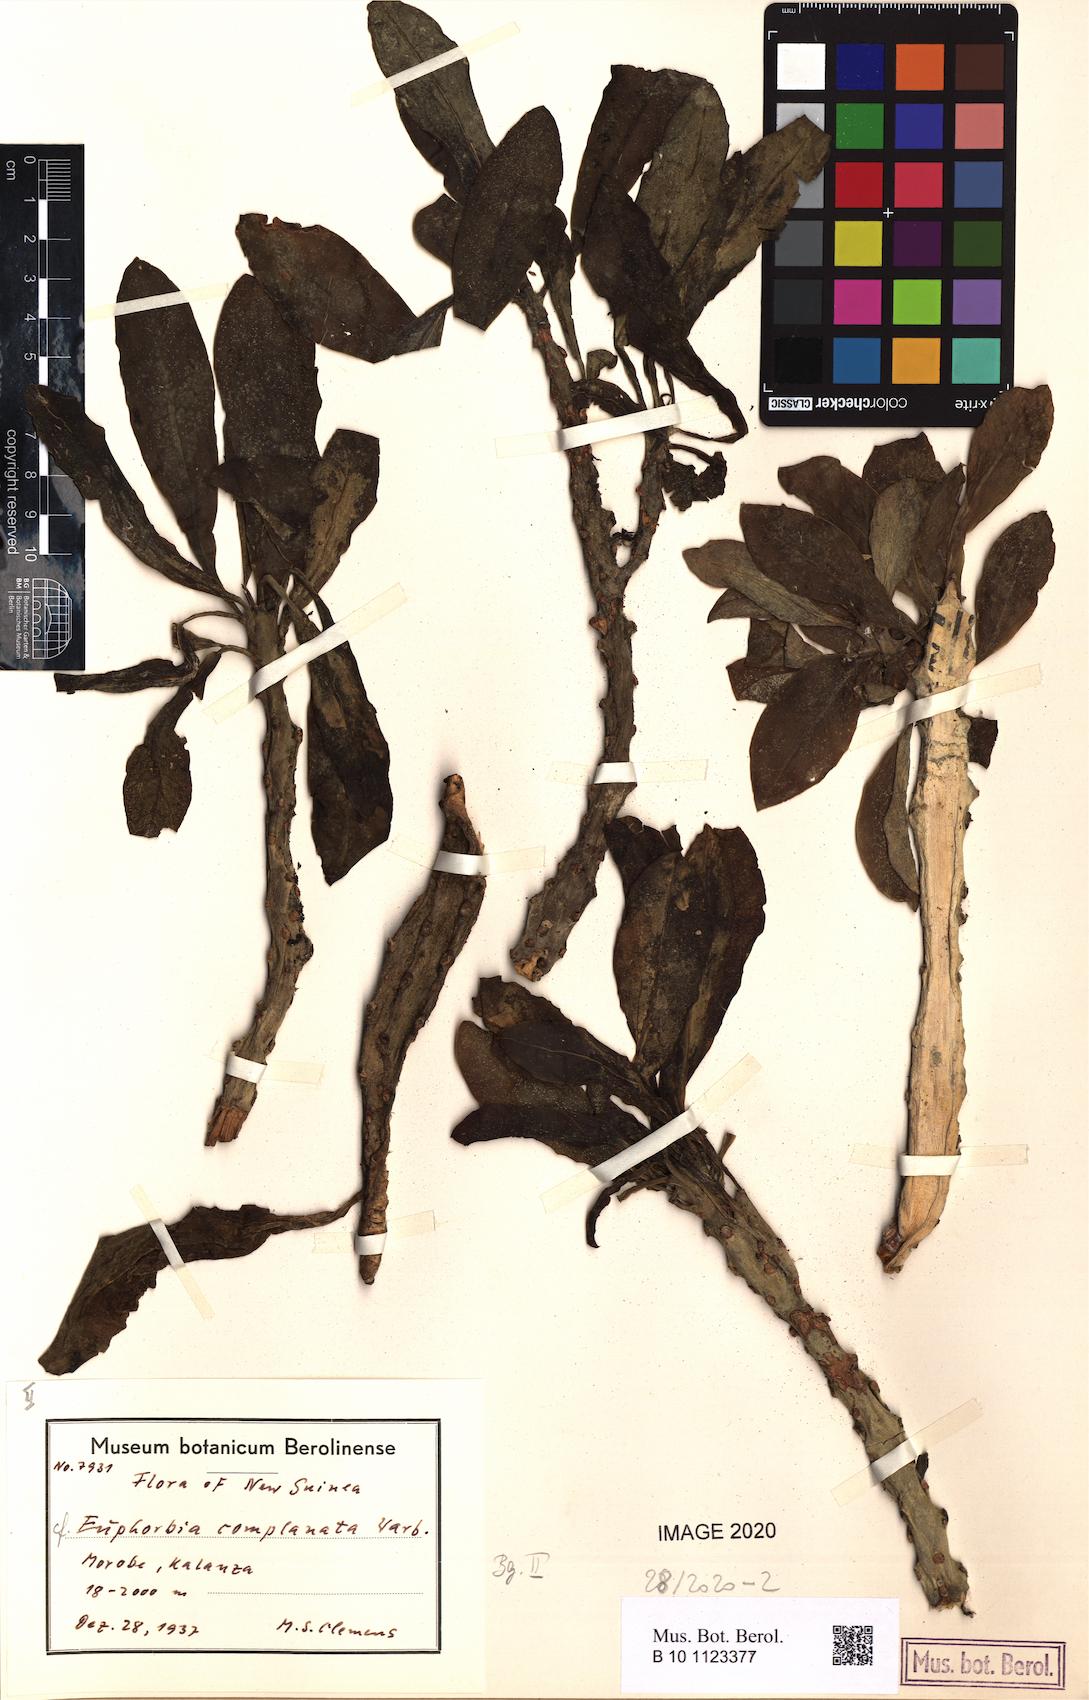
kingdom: Plantae
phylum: Tracheophyta
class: Magnoliopsida
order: Malpighiales
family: Euphorbiaceae
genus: Euphorbia
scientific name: Euphorbia complanata
